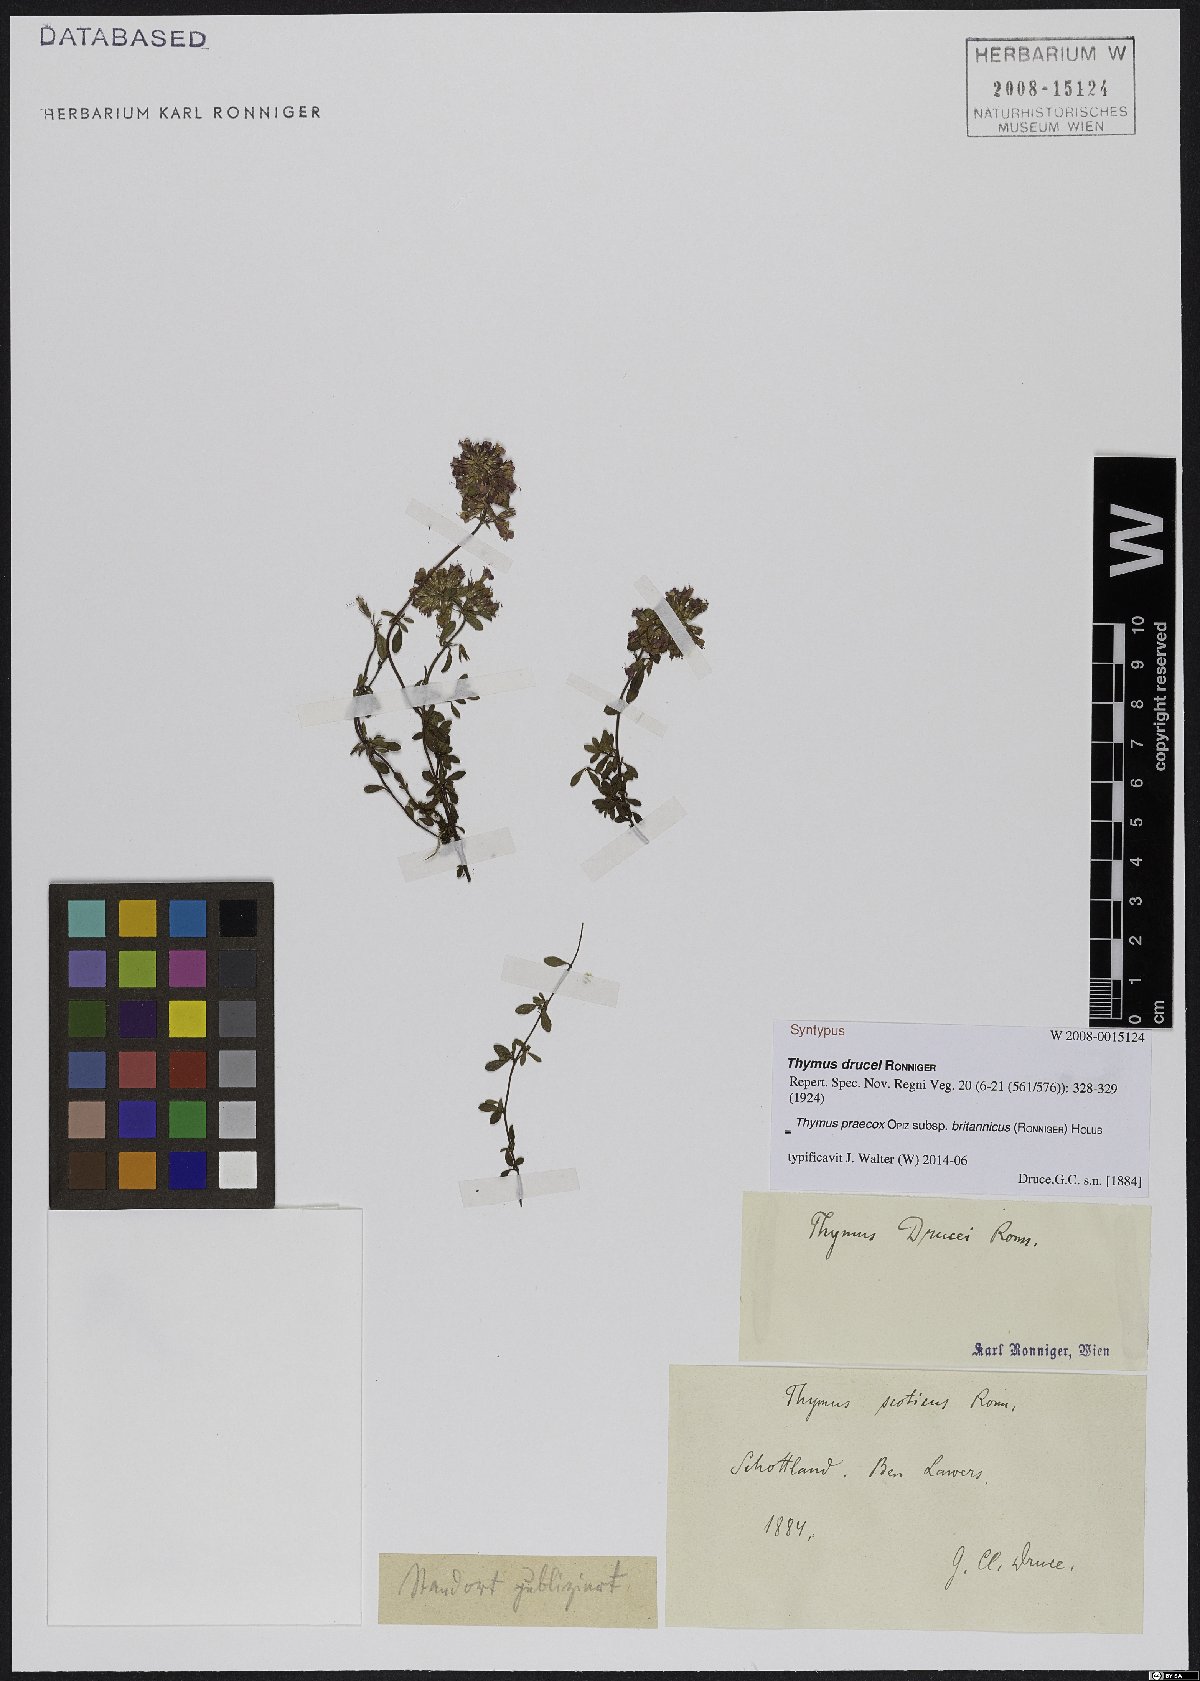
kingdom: Plantae
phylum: Tracheophyta
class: Magnoliopsida
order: Lamiales
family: Lamiaceae
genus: Thymus
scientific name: Thymus praecox
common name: Wild thyme
